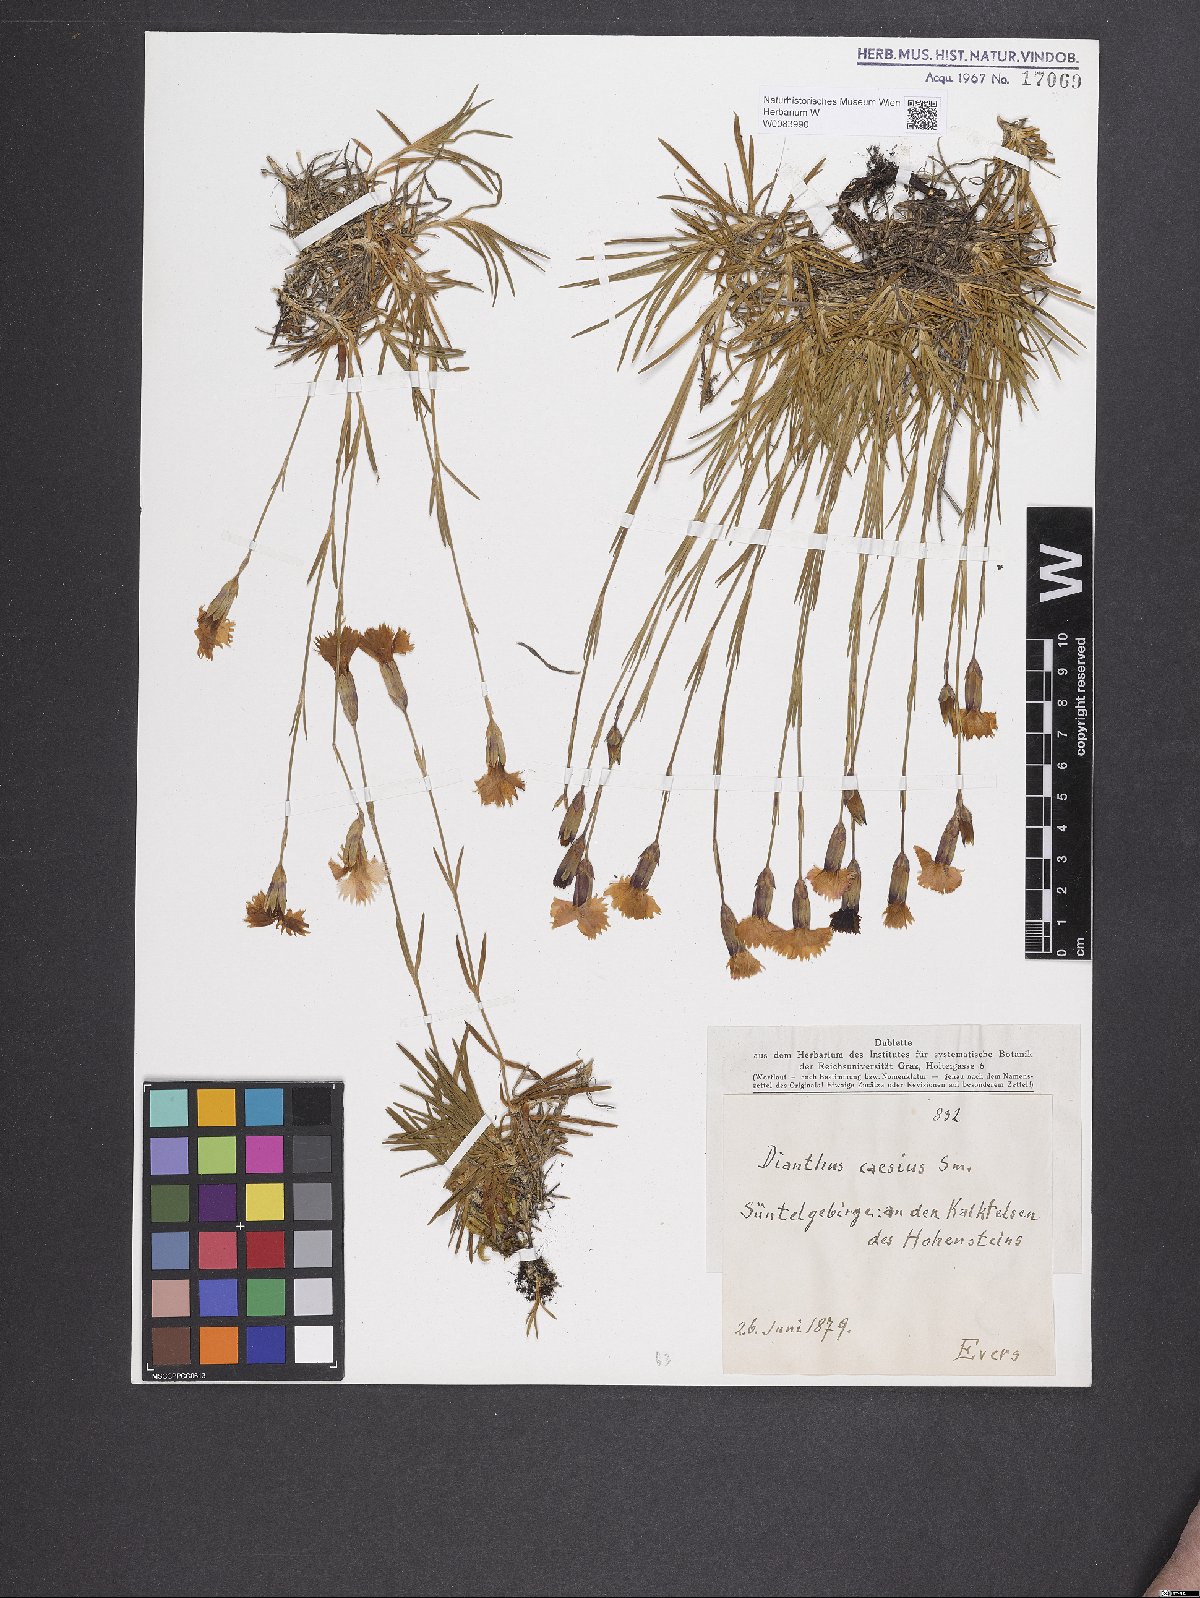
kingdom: Plantae
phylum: Tracheophyta
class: Magnoliopsida
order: Caryophyllales
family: Caryophyllaceae
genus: Dianthus
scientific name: Dianthus gratianopolitanus
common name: Cheddar pink
